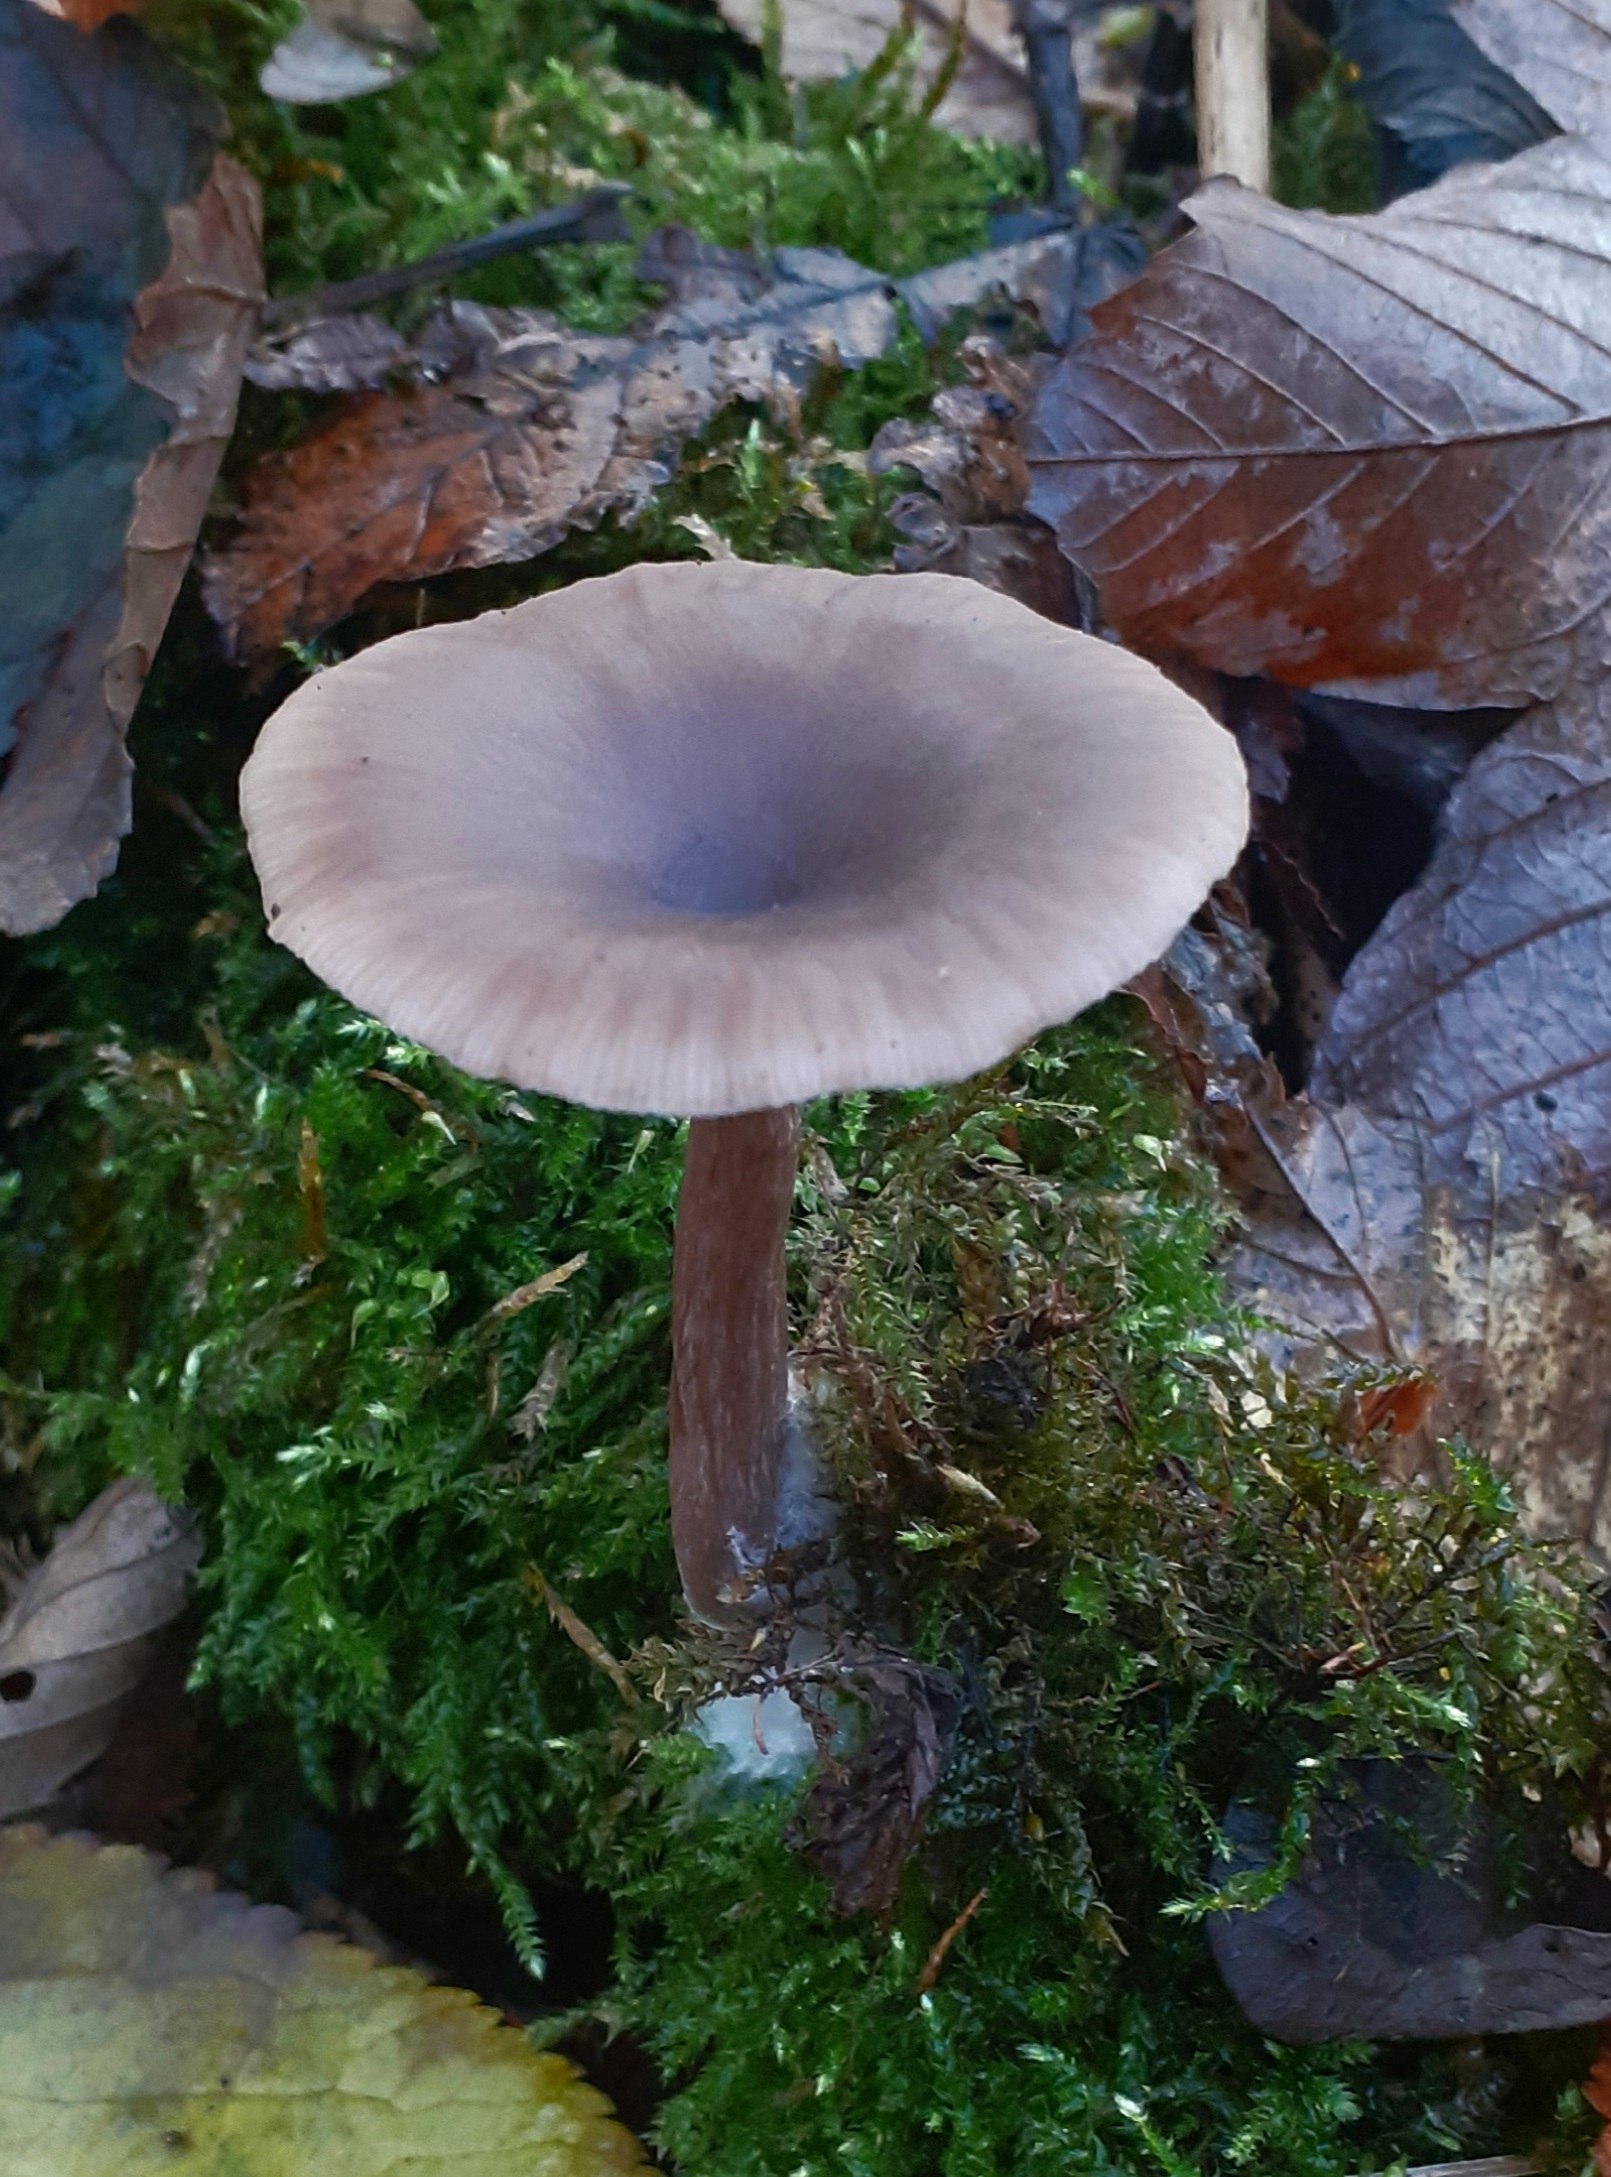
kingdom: Fungi
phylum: Basidiomycota
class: Agaricomycetes
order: Agaricales
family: Pseudoclitocybaceae
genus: Pseudoclitocybe
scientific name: Pseudoclitocybe cyathiformis
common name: almindelig bægertragthat
